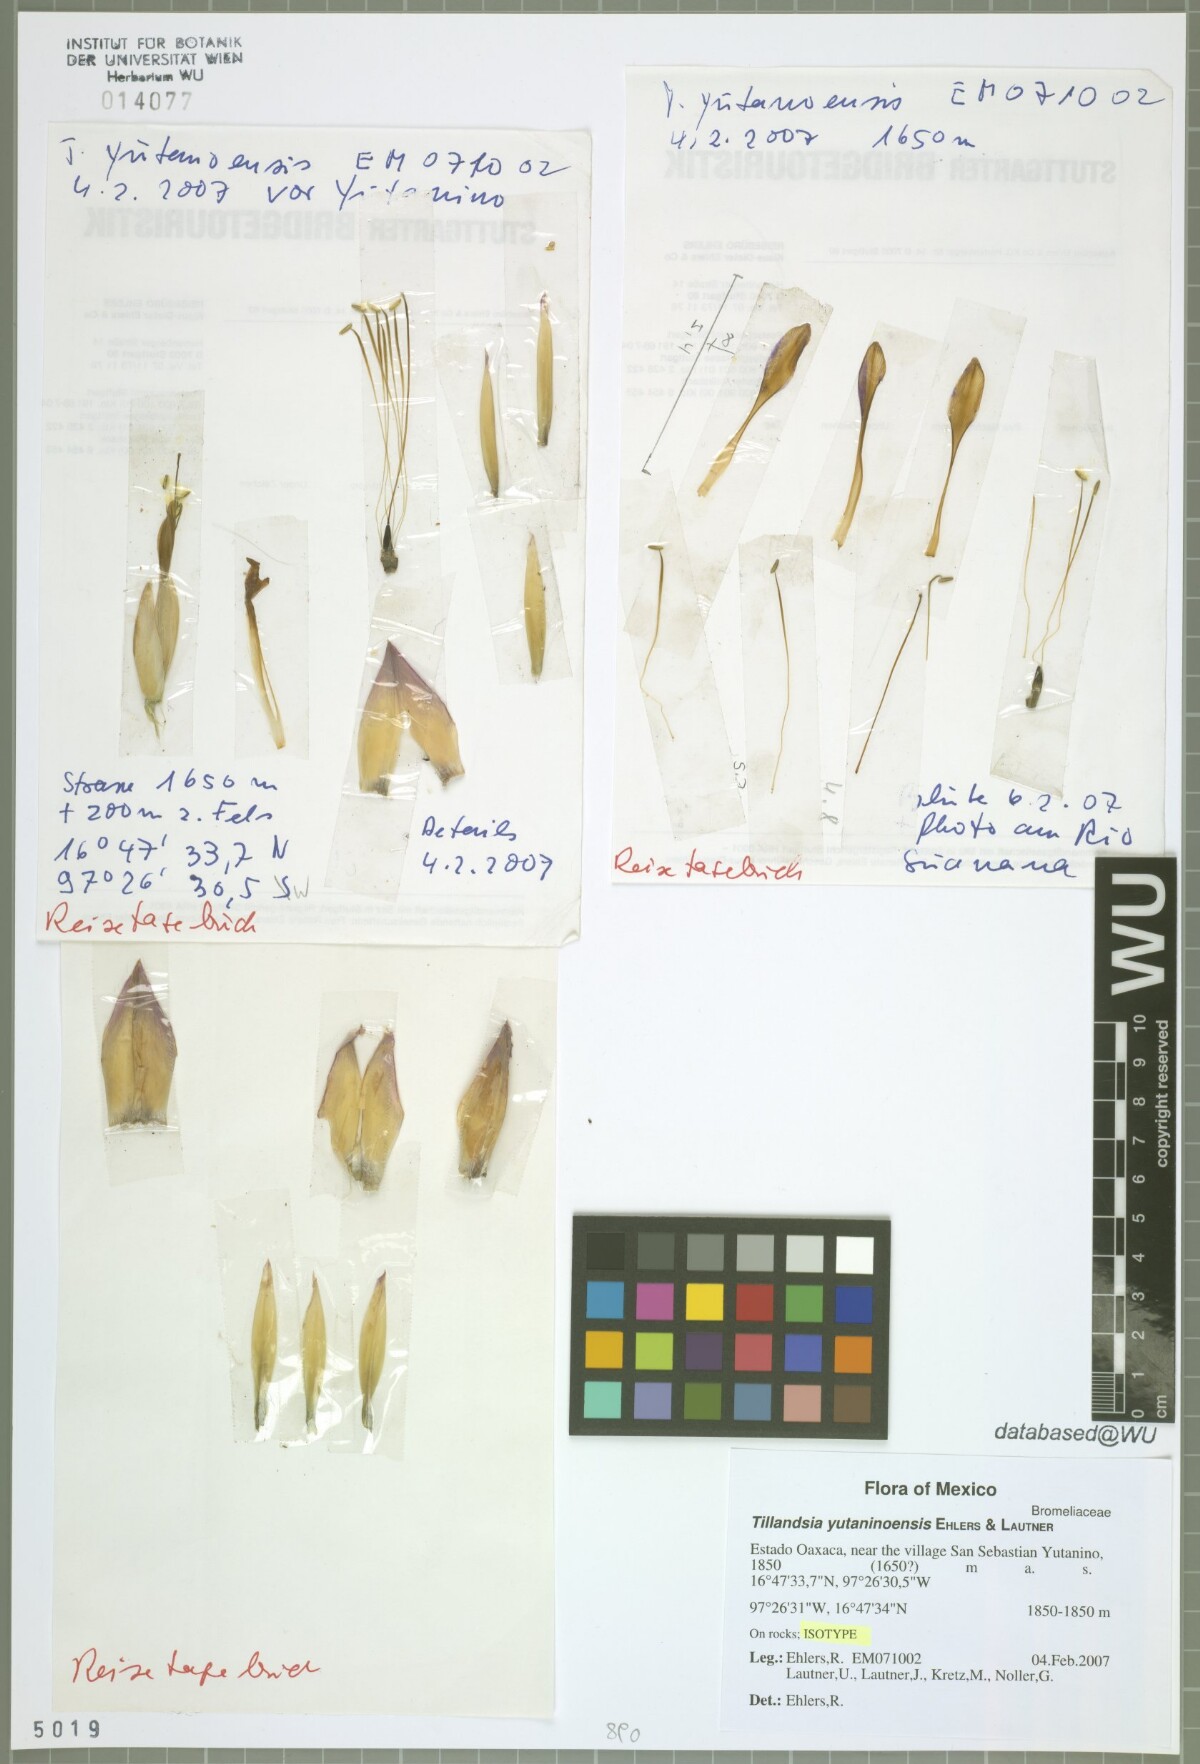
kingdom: Plantae
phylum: Tracheophyta
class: Liliopsida
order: Poales
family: Bromeliaceae
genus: Tillandsia
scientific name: Tillandsia yutaninoensis
